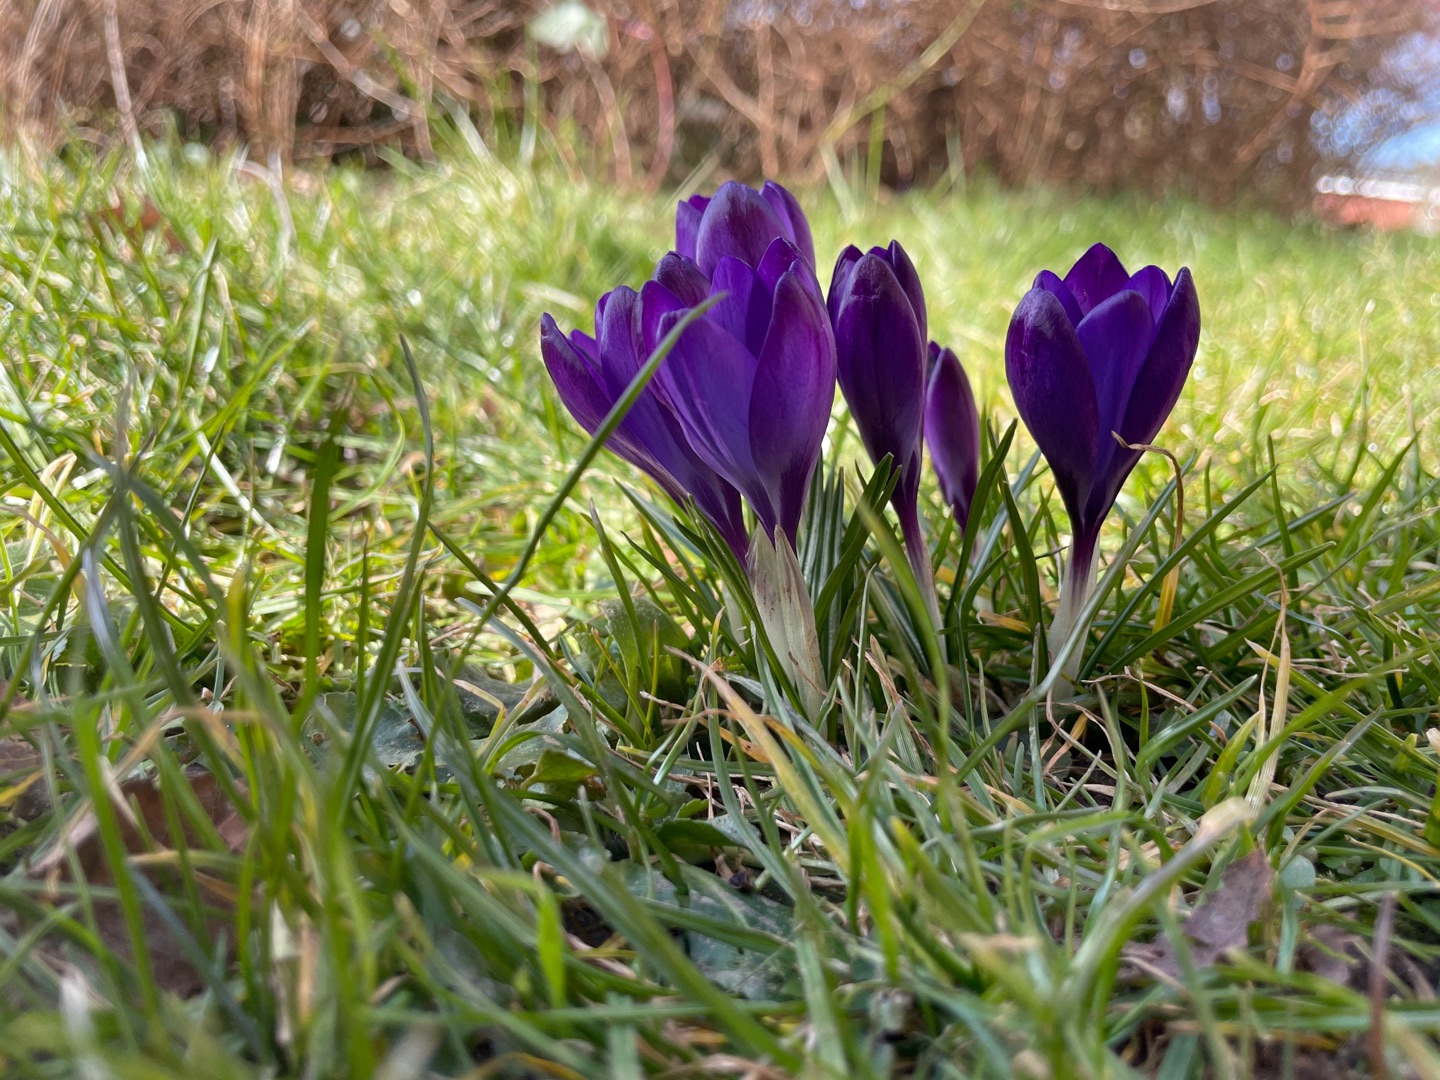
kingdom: Plantae
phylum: Tracheophyta
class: Liliopsida
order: Asparagales
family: Iridaceae
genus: Crocus
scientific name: Crocus vernus
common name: Vår-krokus
